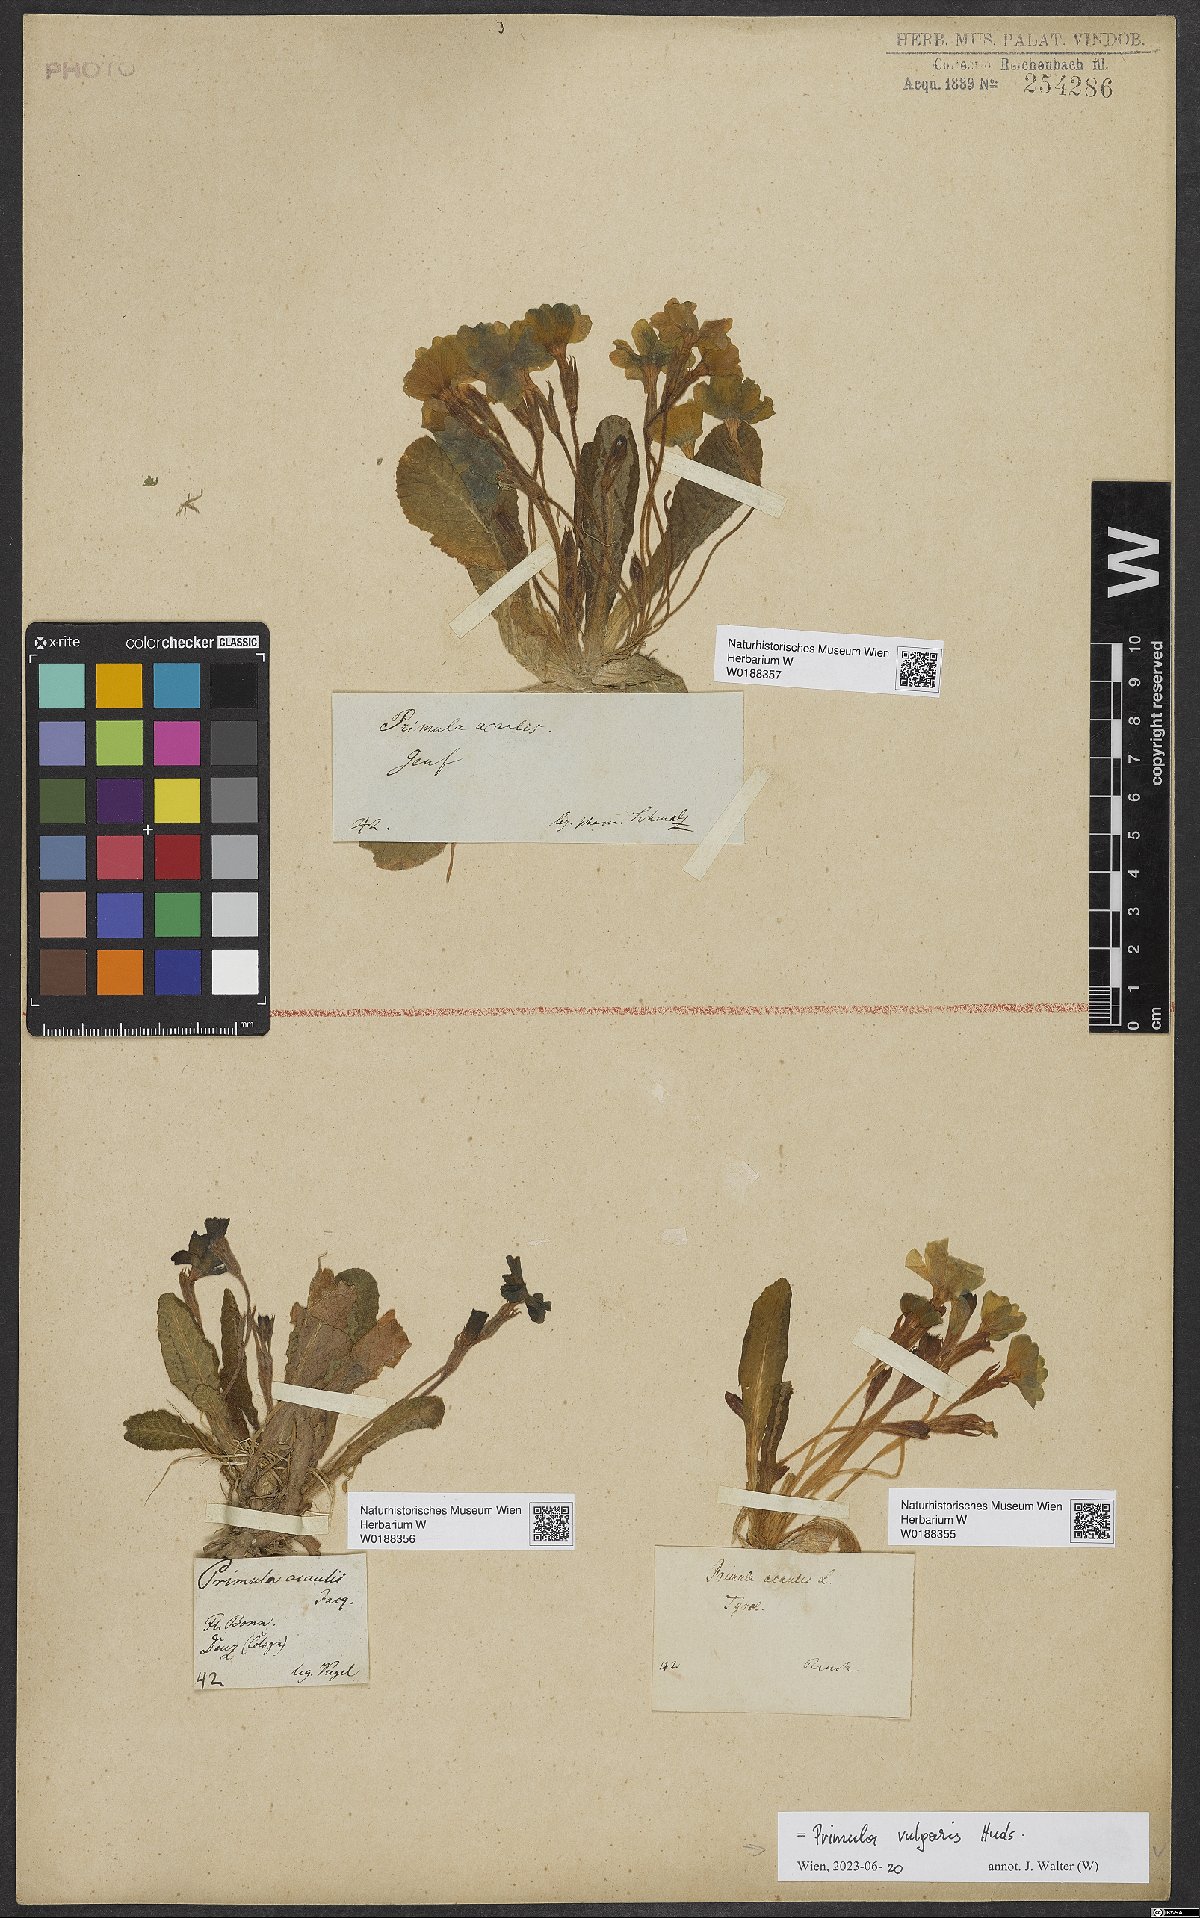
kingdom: Plantae
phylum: Tracheophyta
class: Magnoliopsida
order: Ericales
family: Primulaceae
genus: Primula
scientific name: Primula vulgaris
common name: Primrose
